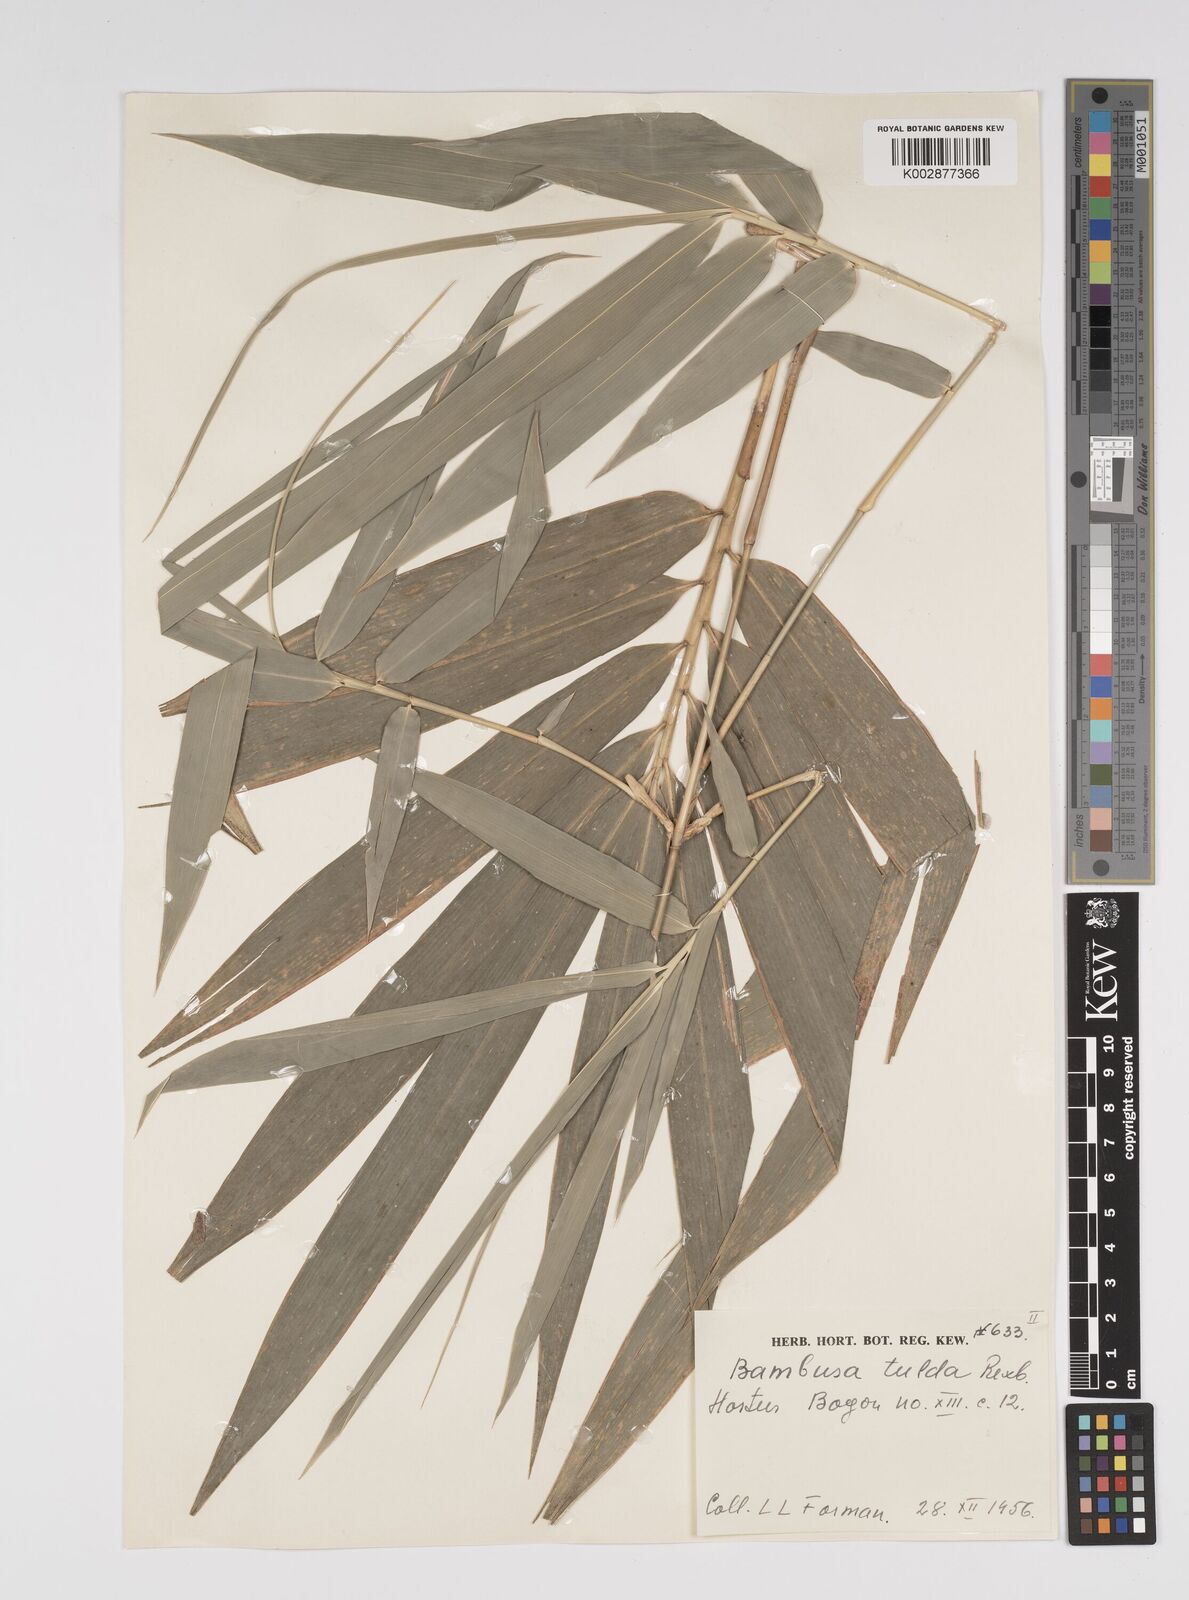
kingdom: Plantae
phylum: Tracheophyta
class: Liliopsida
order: Poales
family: Poaceae
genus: Bambusa
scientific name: Bambusa tulda
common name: Bengal bamboo
